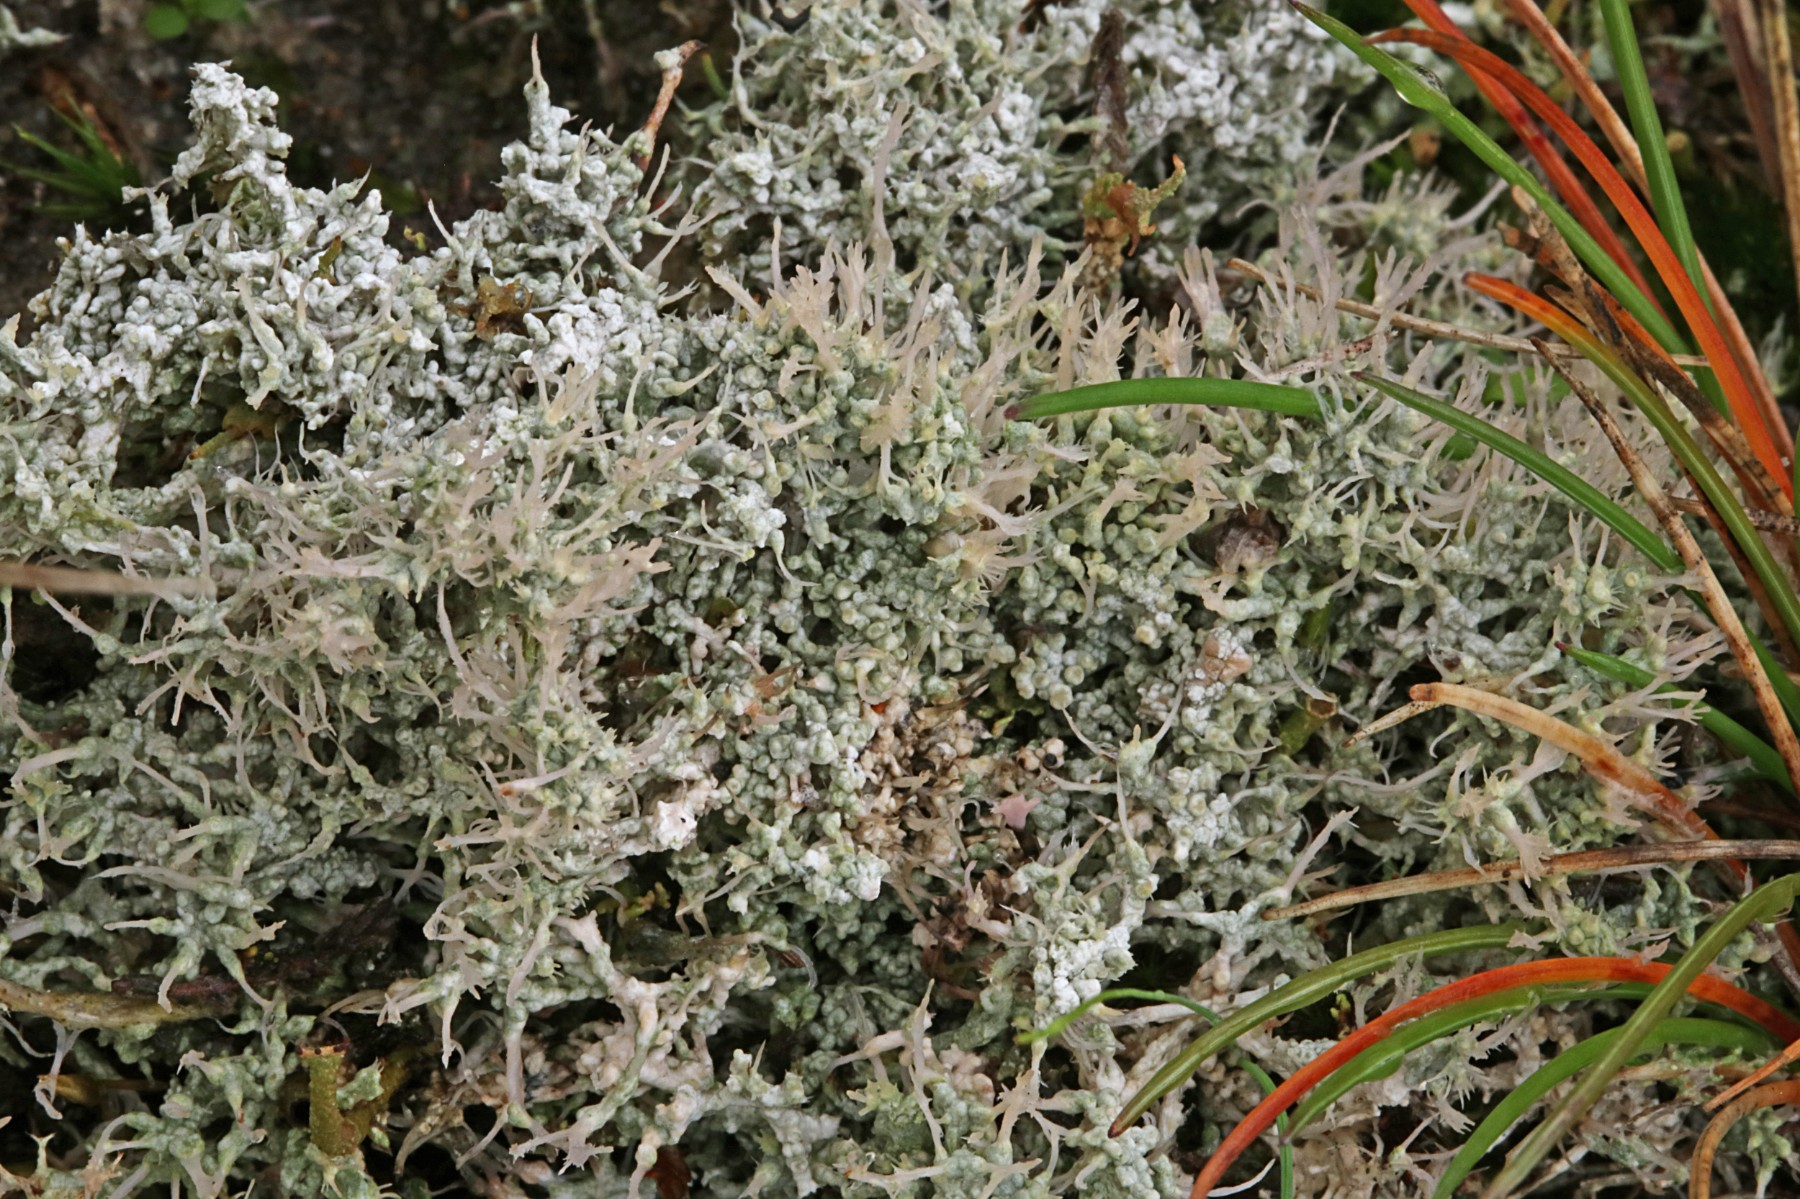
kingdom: Fungi
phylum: Ascomycota
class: Lecanoromycetes
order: Pertusariales
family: Ochrolechiaceae
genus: Ochrolechia
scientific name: Ochrolechia frigida
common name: fjeld-blegskivelav
